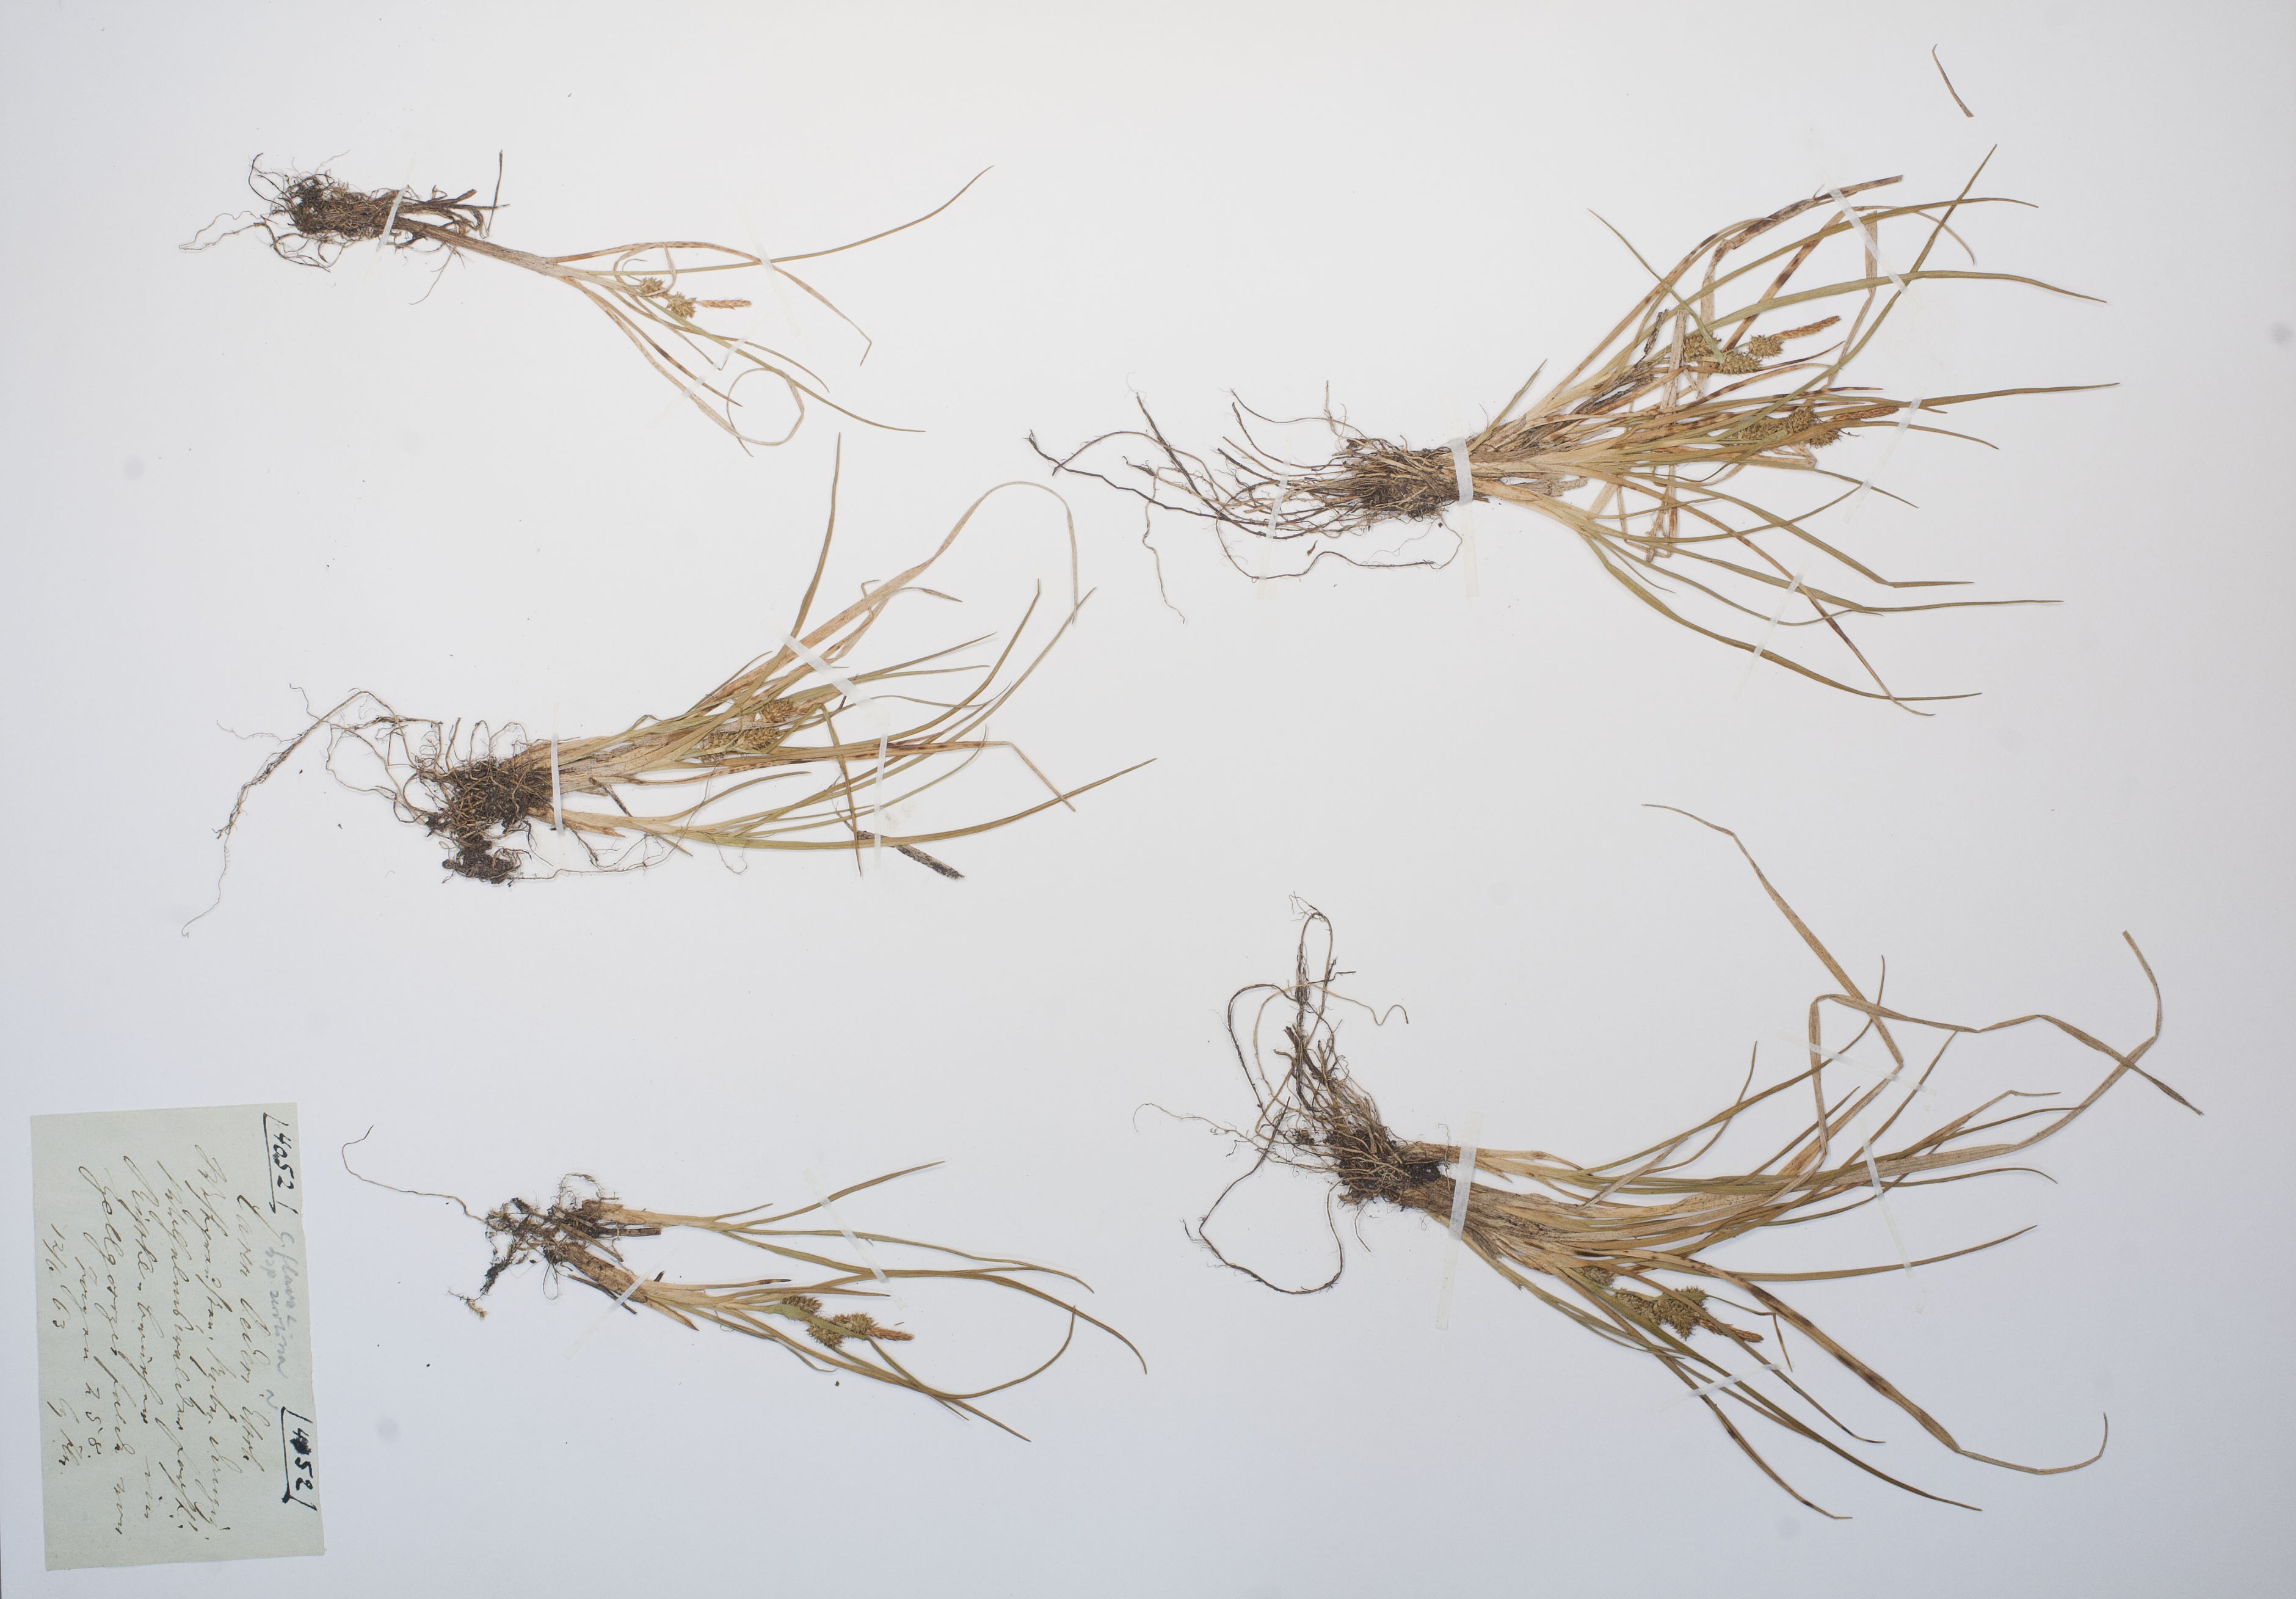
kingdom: Plantae
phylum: Tracheophyta
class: Liliopsida
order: Poales
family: Cyperaceae
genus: Carex
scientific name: Carex oederi
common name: Common & small-fruited yellow-sedge
